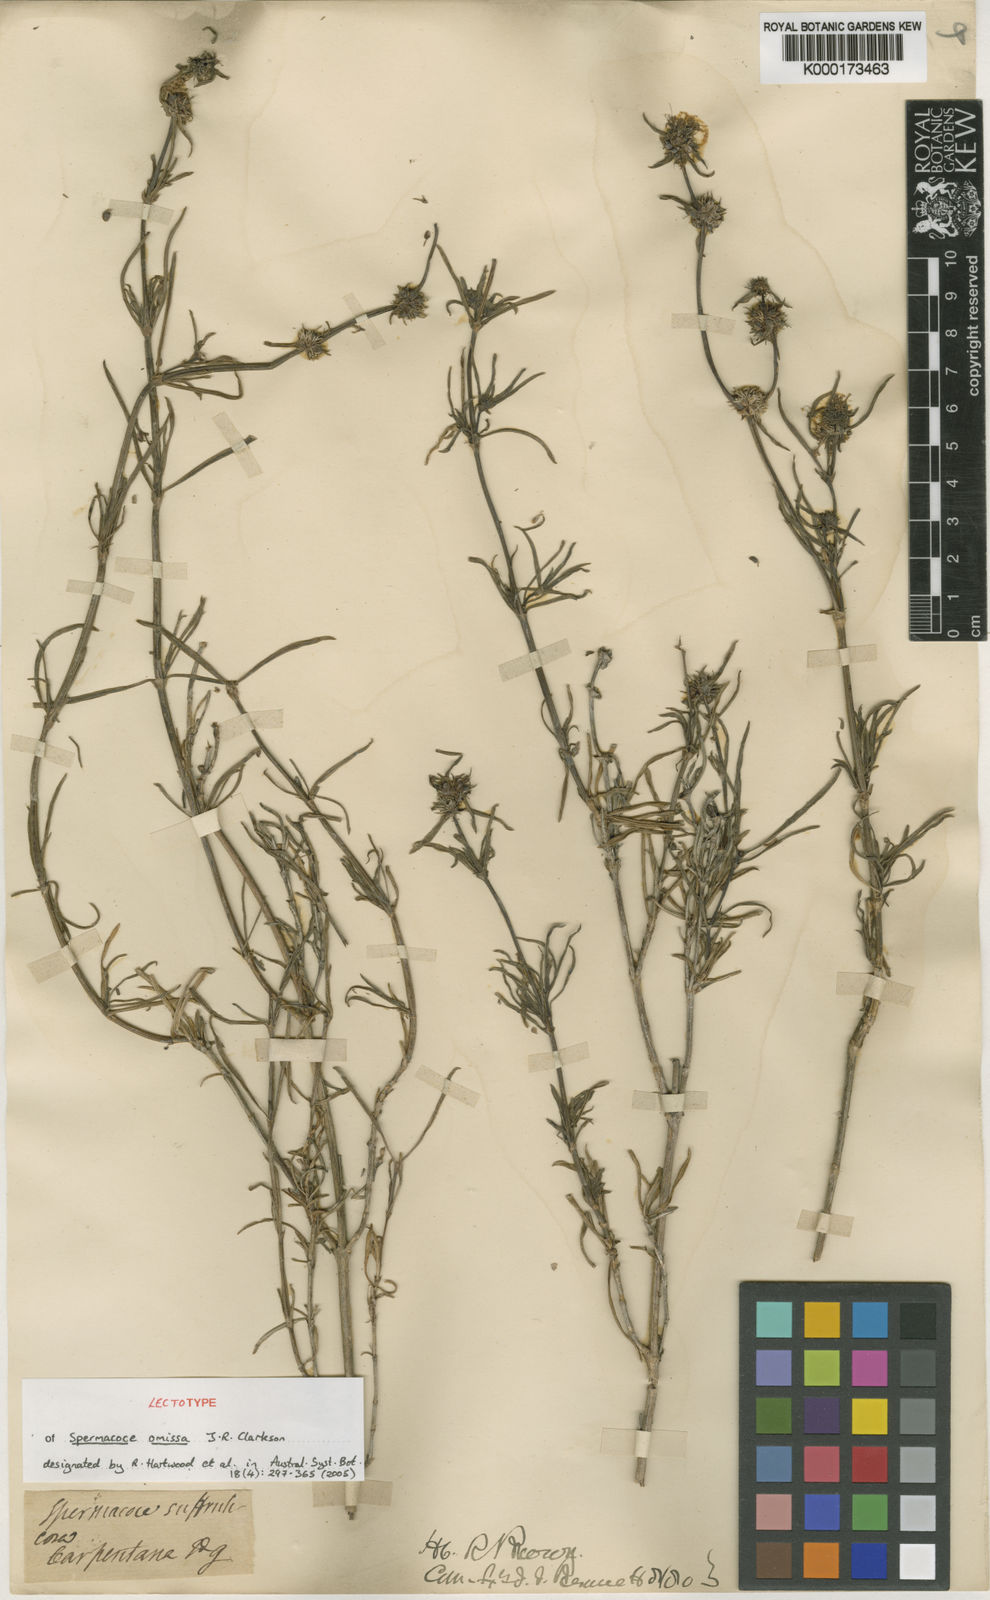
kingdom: Plantae
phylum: Tracheophyta
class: Magnoliopsida
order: Gentianales
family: Rubiaceae
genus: Spermacoce
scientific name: Spermacoce omissa
